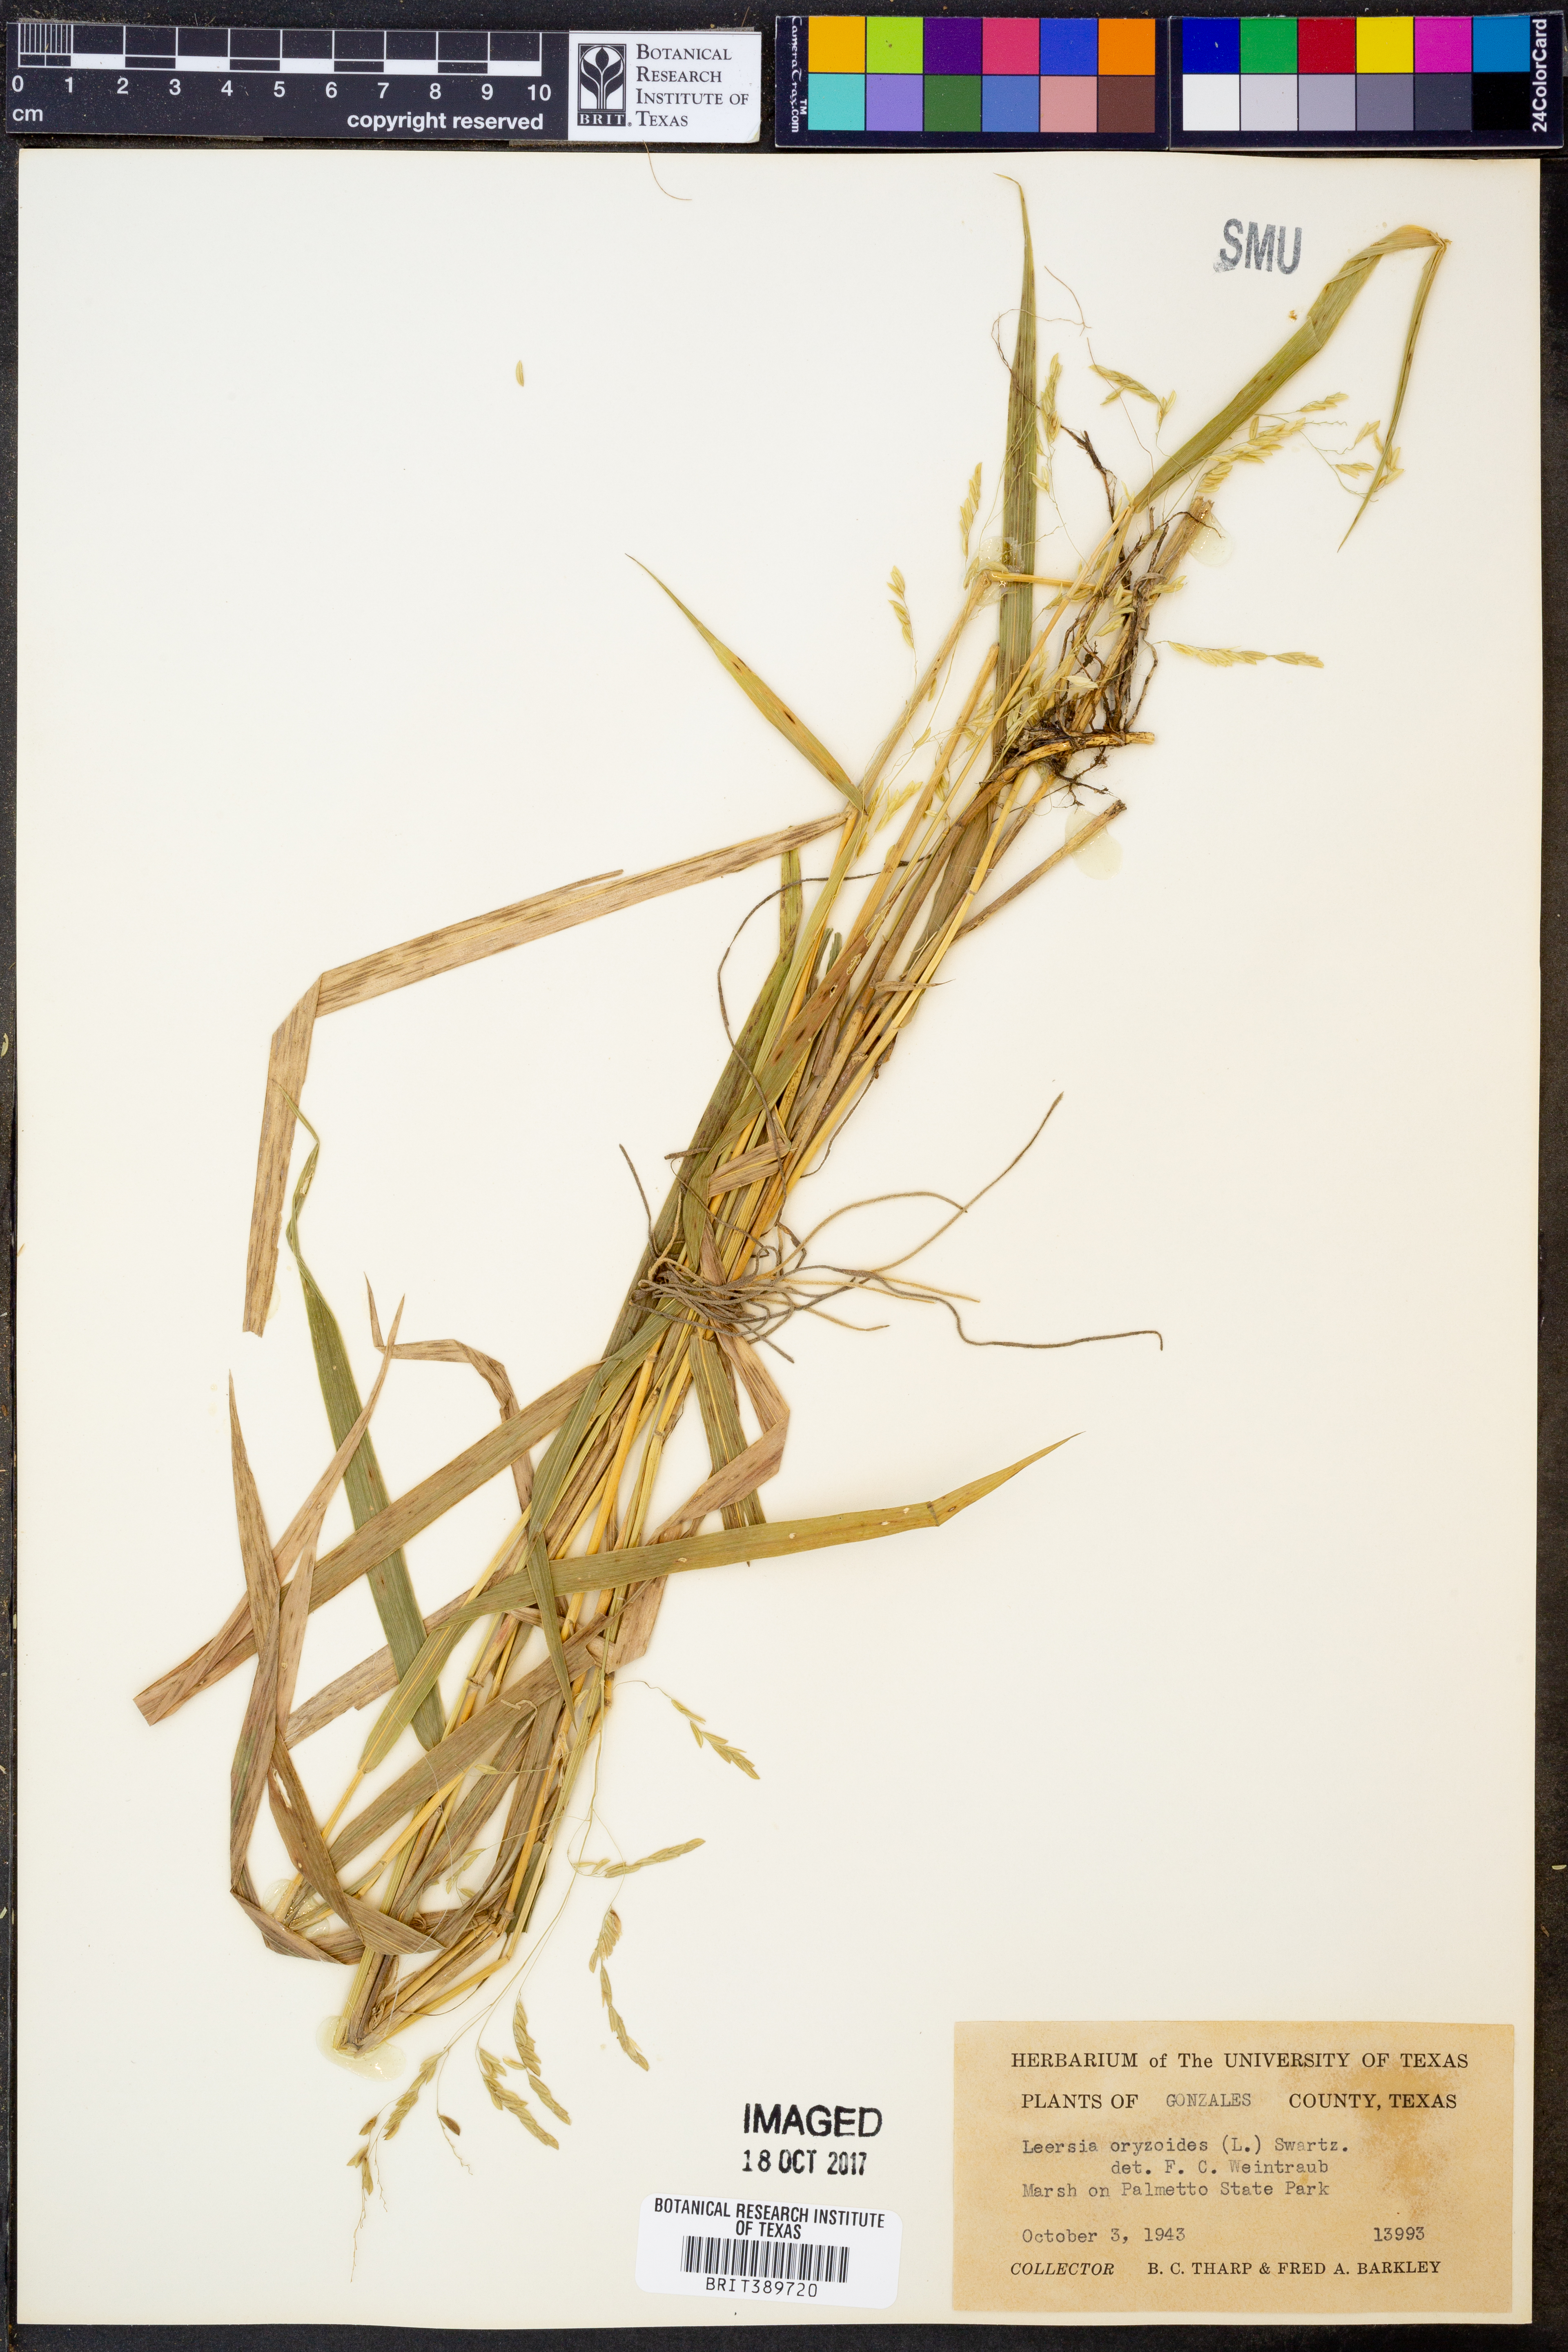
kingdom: Plantae
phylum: Tracheophyta
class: Liliopsida
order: Poales
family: Poaceae
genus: Leersia
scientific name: Leersia oryzoides
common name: Cut-grass
